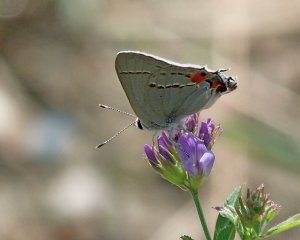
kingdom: Animalia
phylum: Arthropoda
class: Insecta
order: Lepidoptera
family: Lycaenidae
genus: Strymon
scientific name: Strymon melinus
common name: Gray Hairstreak
